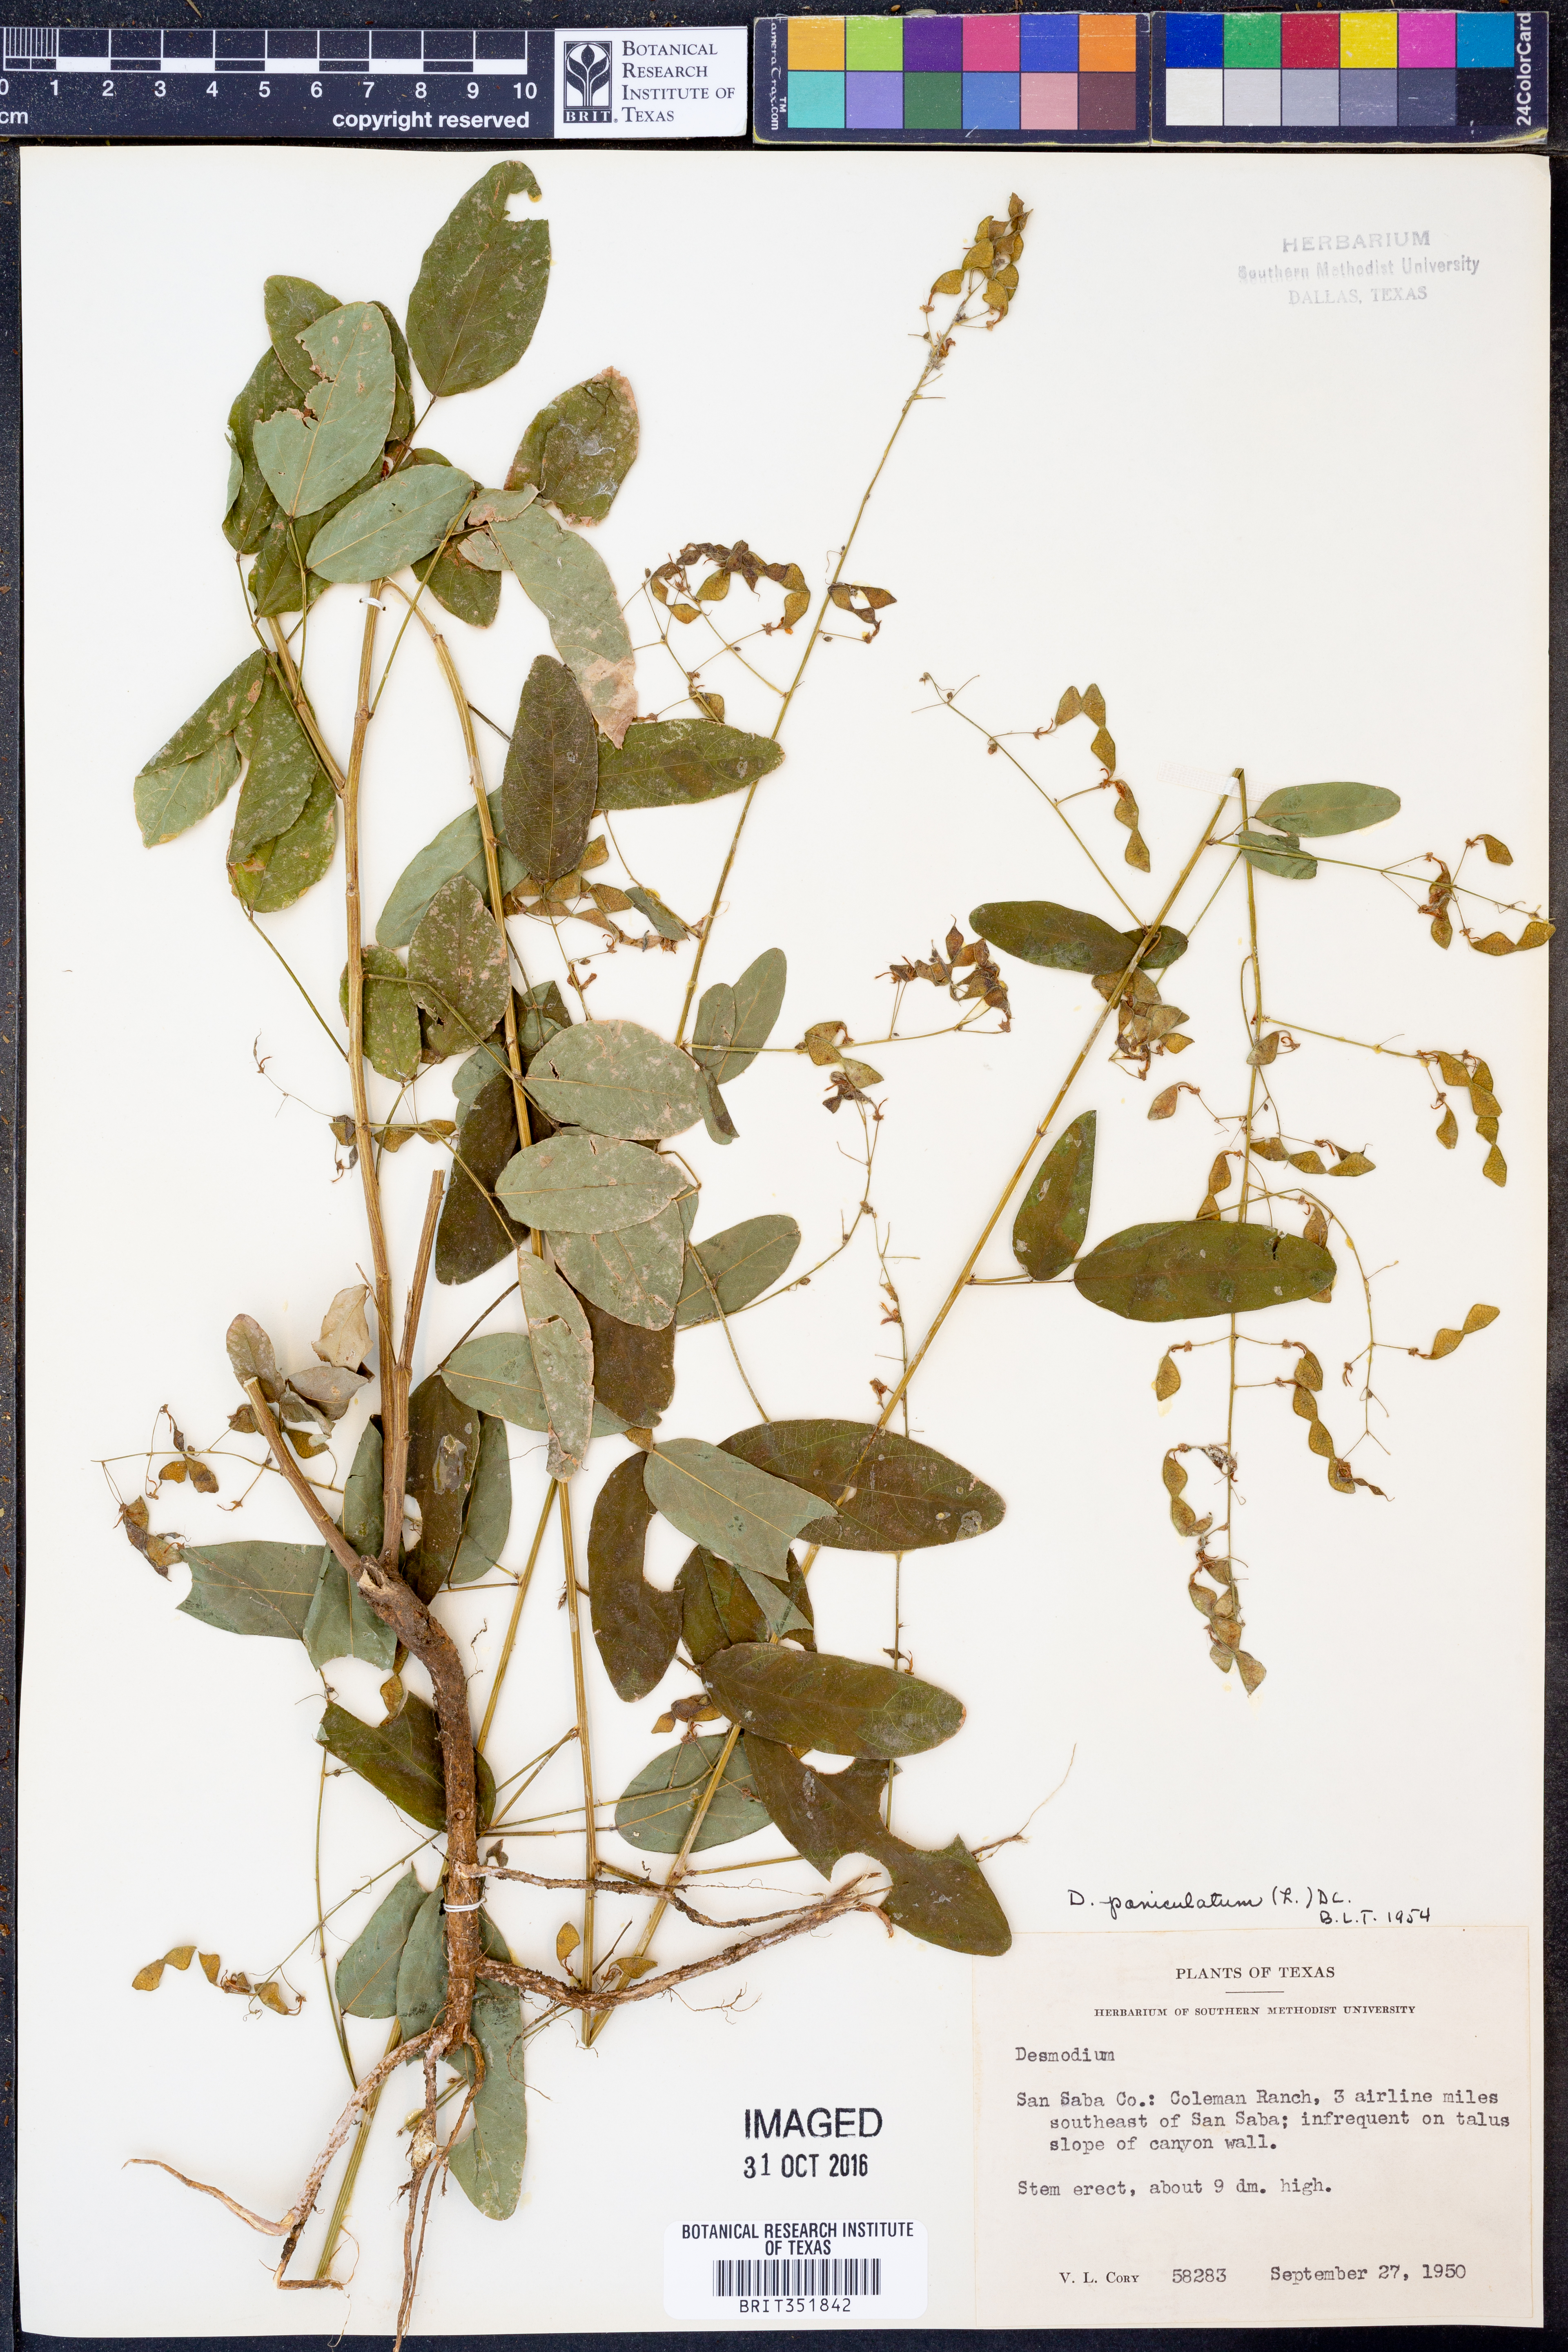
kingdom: Plantae
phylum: Tracheophyta
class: Magnoliopsida
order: Fabales
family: Fabaceae
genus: Desmodium
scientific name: Desmodium paniculatum
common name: Panicled tick-clover
